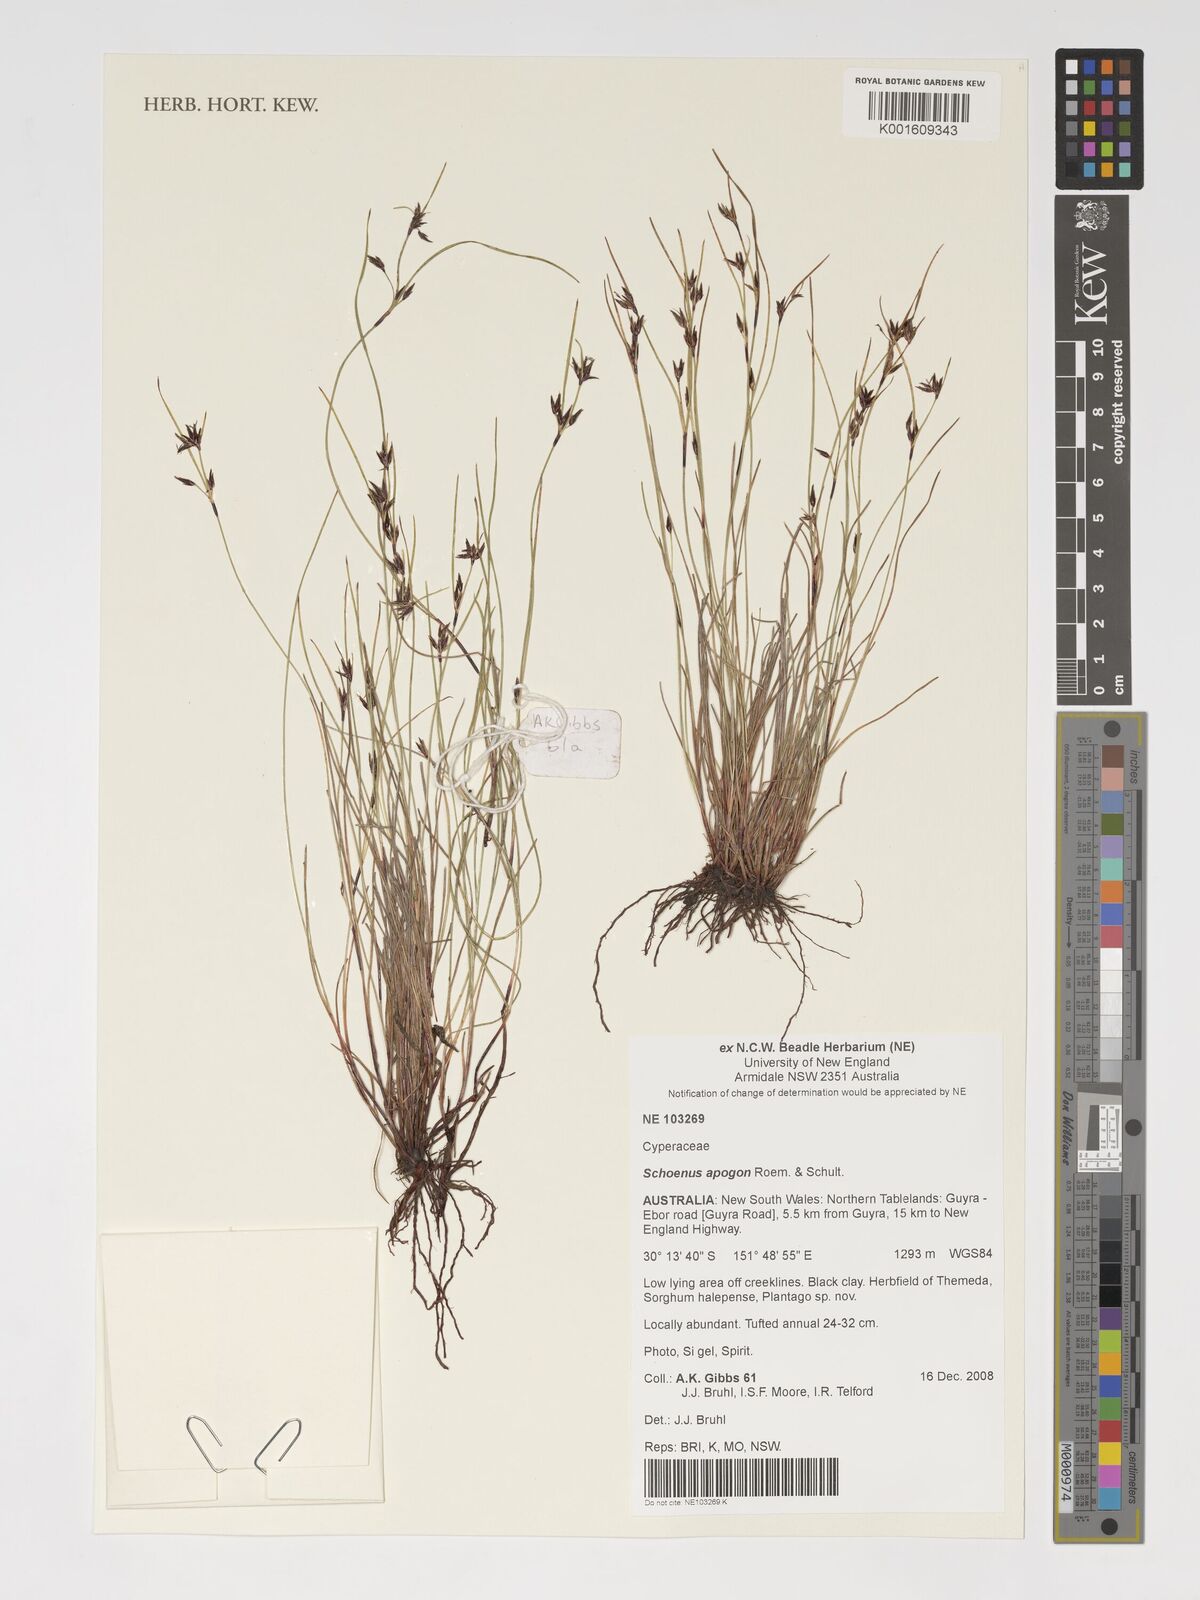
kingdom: Plantae
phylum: Tracheophyta
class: Liliopsida
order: Poales
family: Cyperaceae
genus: Schoenus
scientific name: Schoenus apogon
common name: Smooth bogrush
